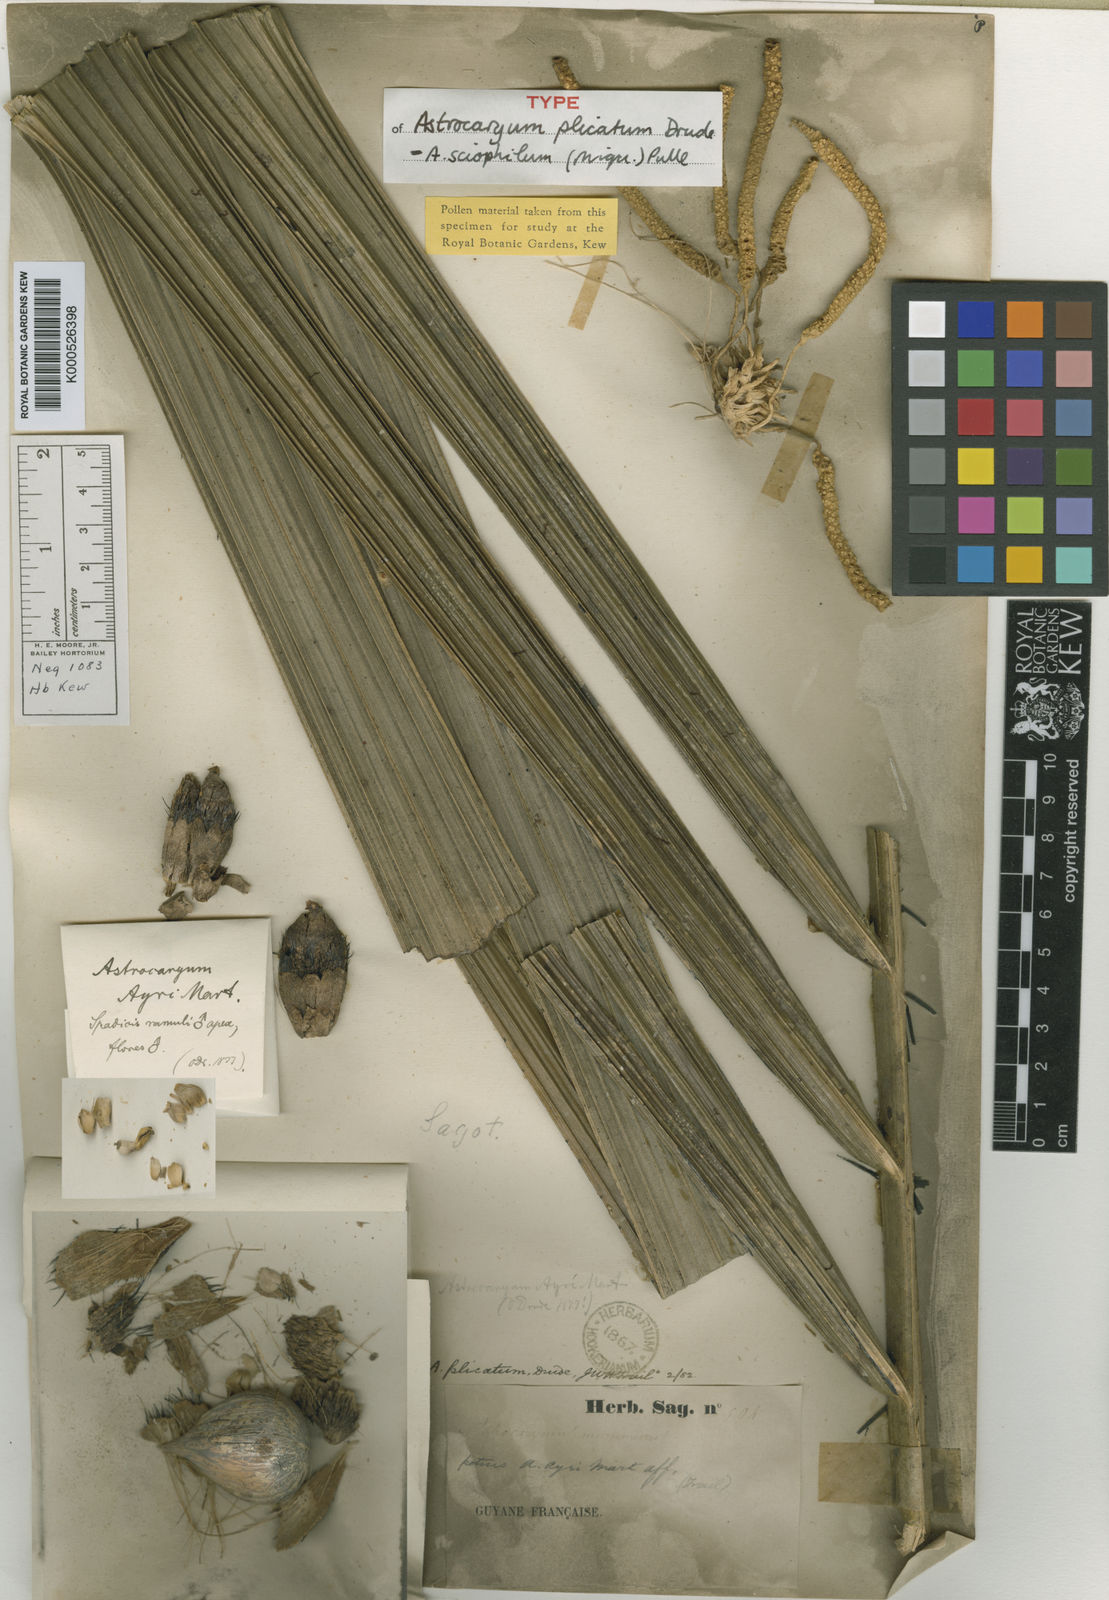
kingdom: Plantae
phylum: Tracheophyta
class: Liliopsida
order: Arecales
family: Arecaceae
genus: Astrocaryum
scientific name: Astrocaryum sciophilum
